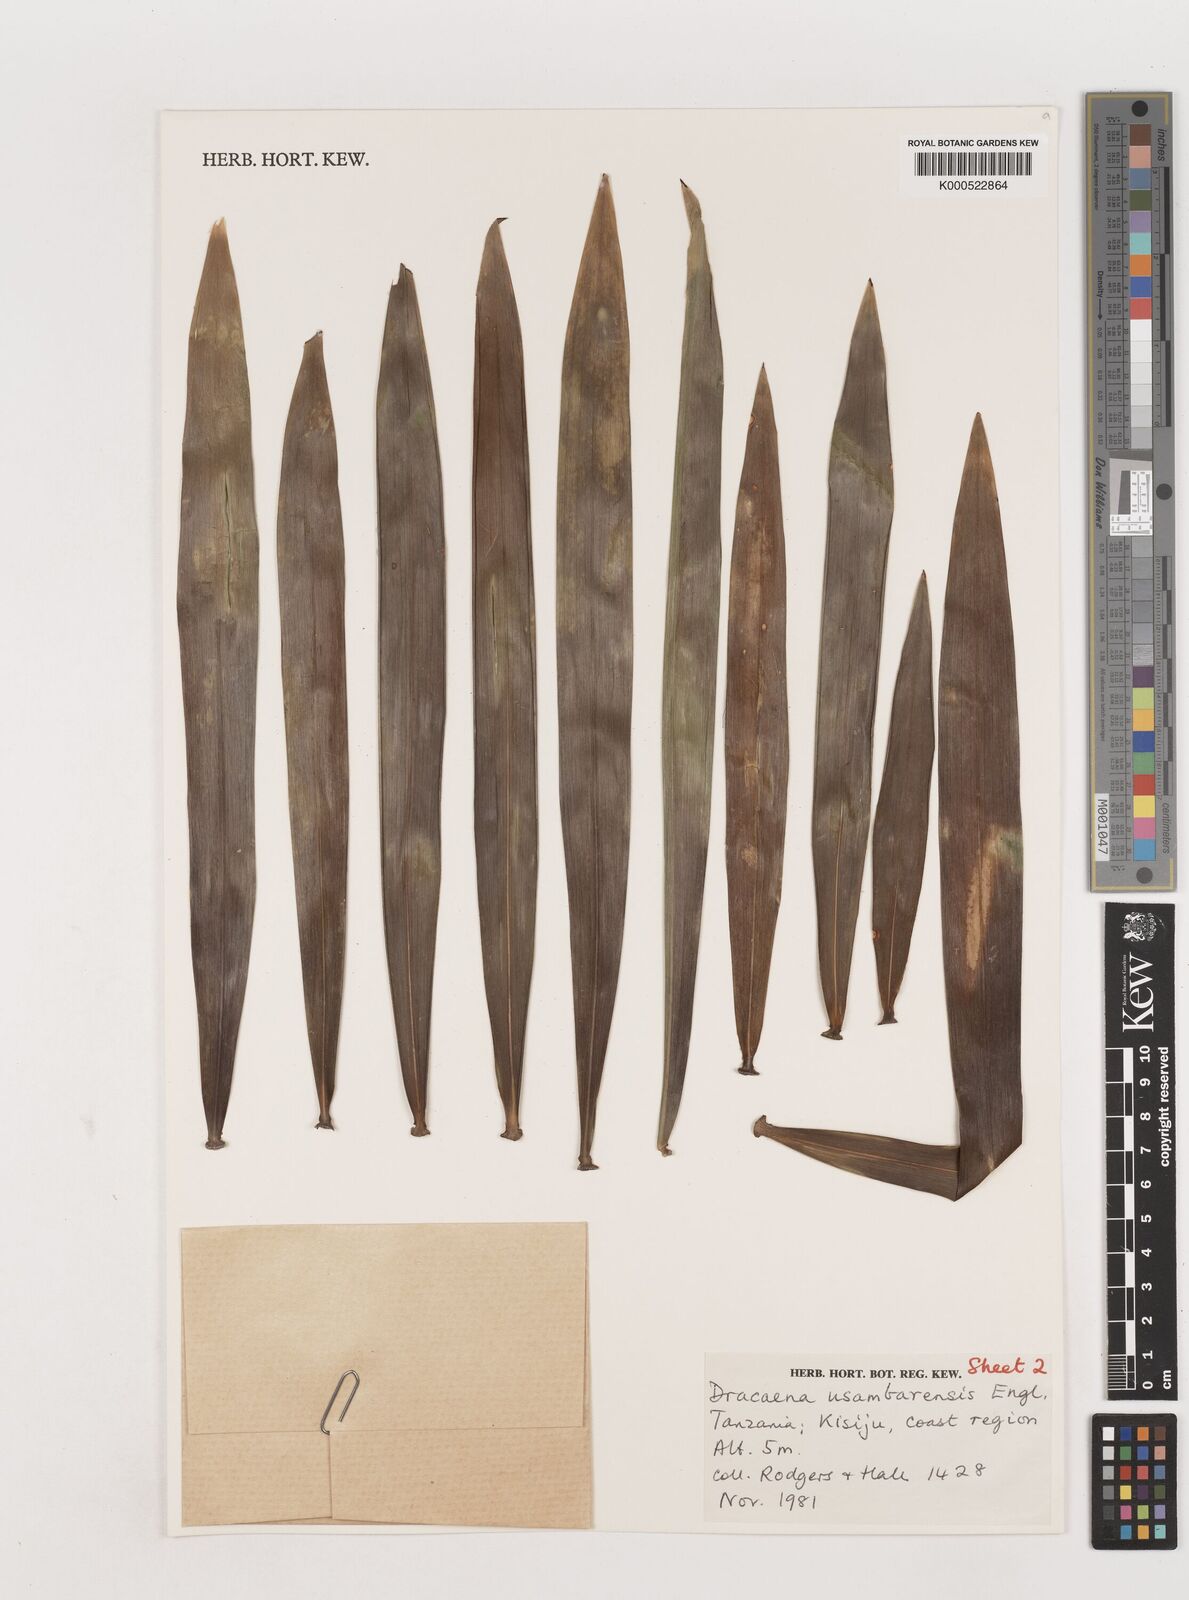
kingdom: Plantae
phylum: Tracheophyta
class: Liliopsida
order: Asparagales
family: Asparagaceae
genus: Dracaena
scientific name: Dracaena usambarensis
